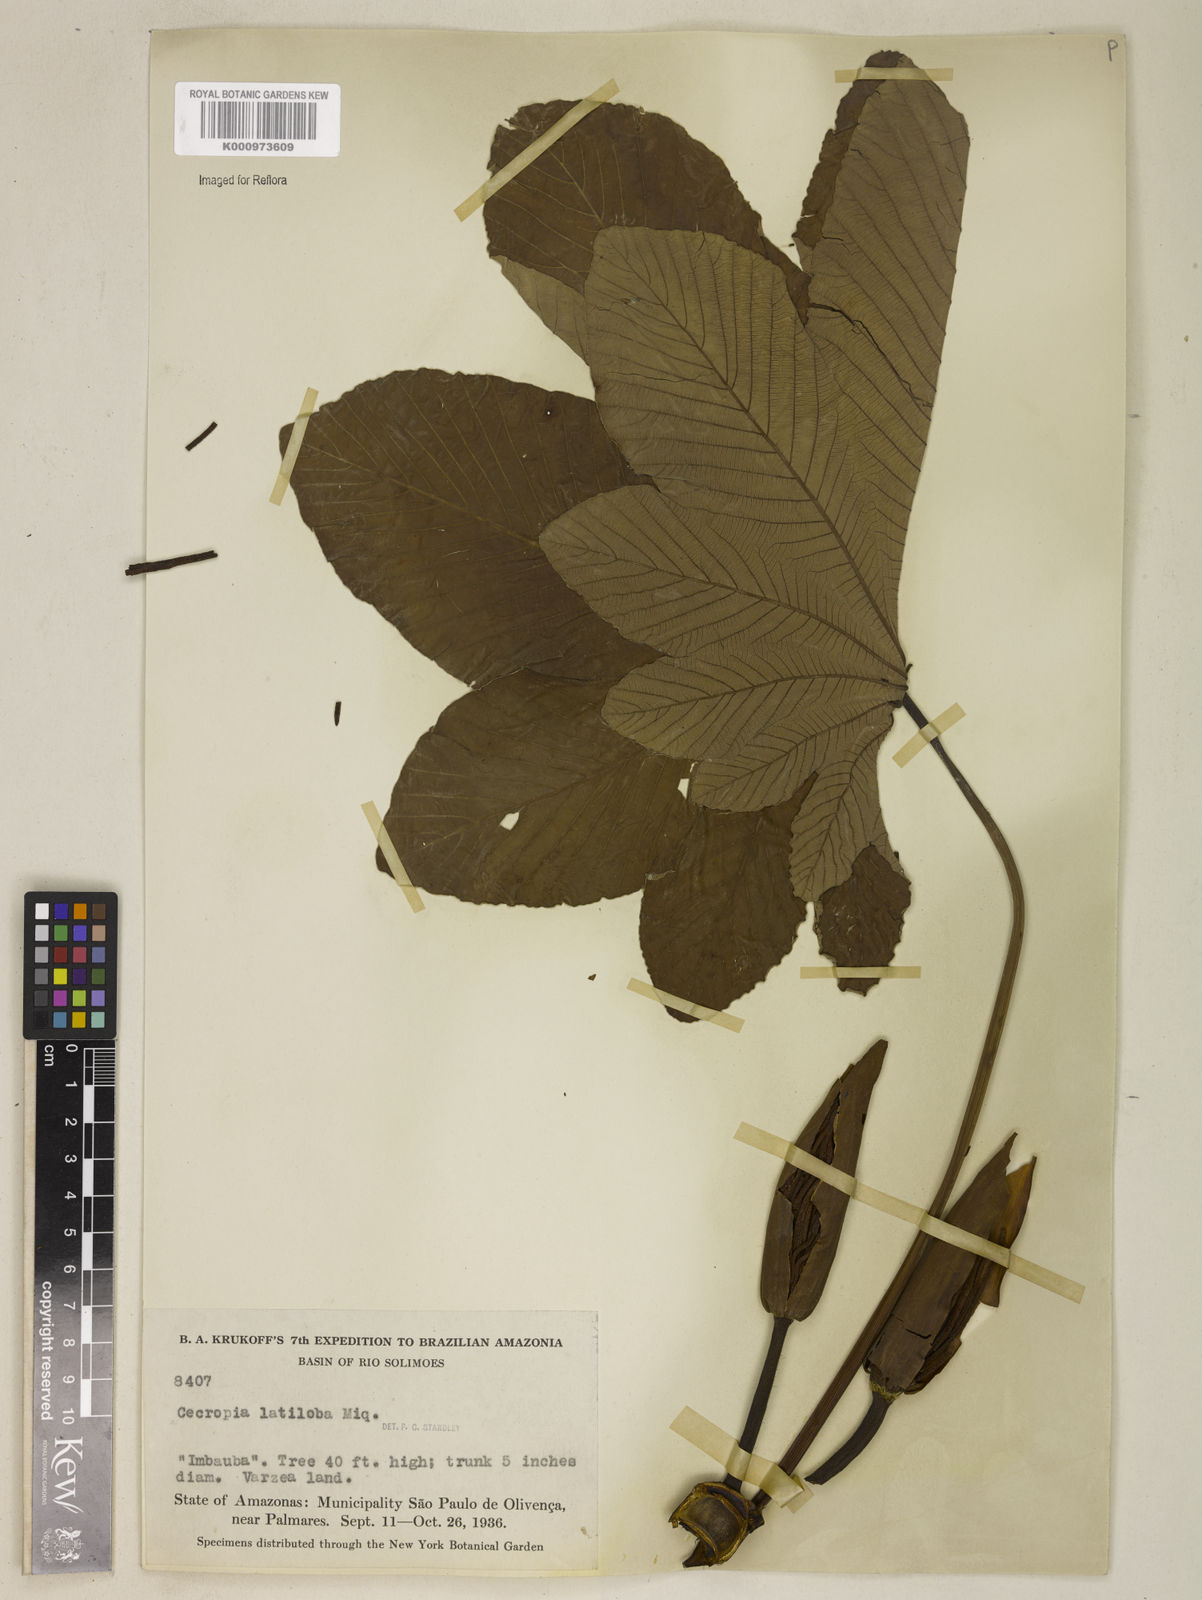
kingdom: Plantae
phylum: Tracheophyta
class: Magnoliopsida
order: Rosales
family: Urticaceae
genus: Cecropia
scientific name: Cecropia latiloba
